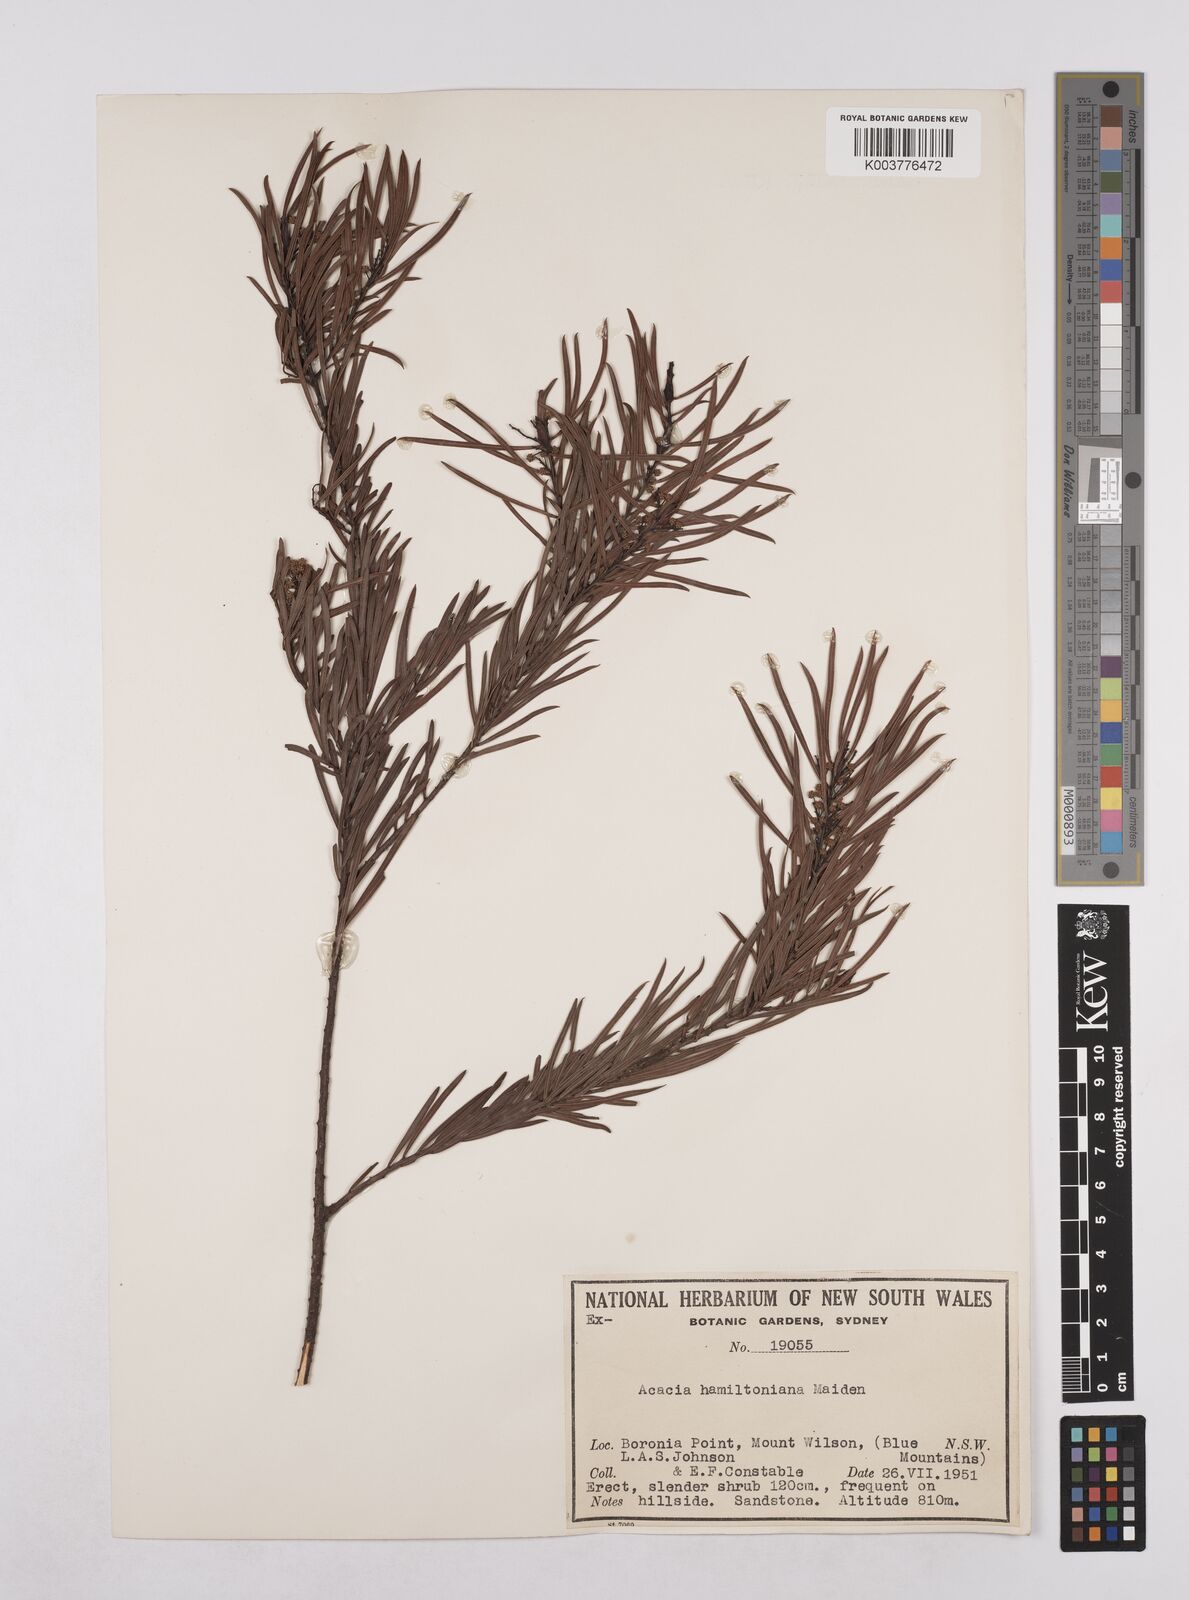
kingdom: Plantae
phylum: Tracheophyta
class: Magnoliopsida
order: Fabales
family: Fabaceae
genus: Acacia
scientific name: Acacia hamiltoniana
